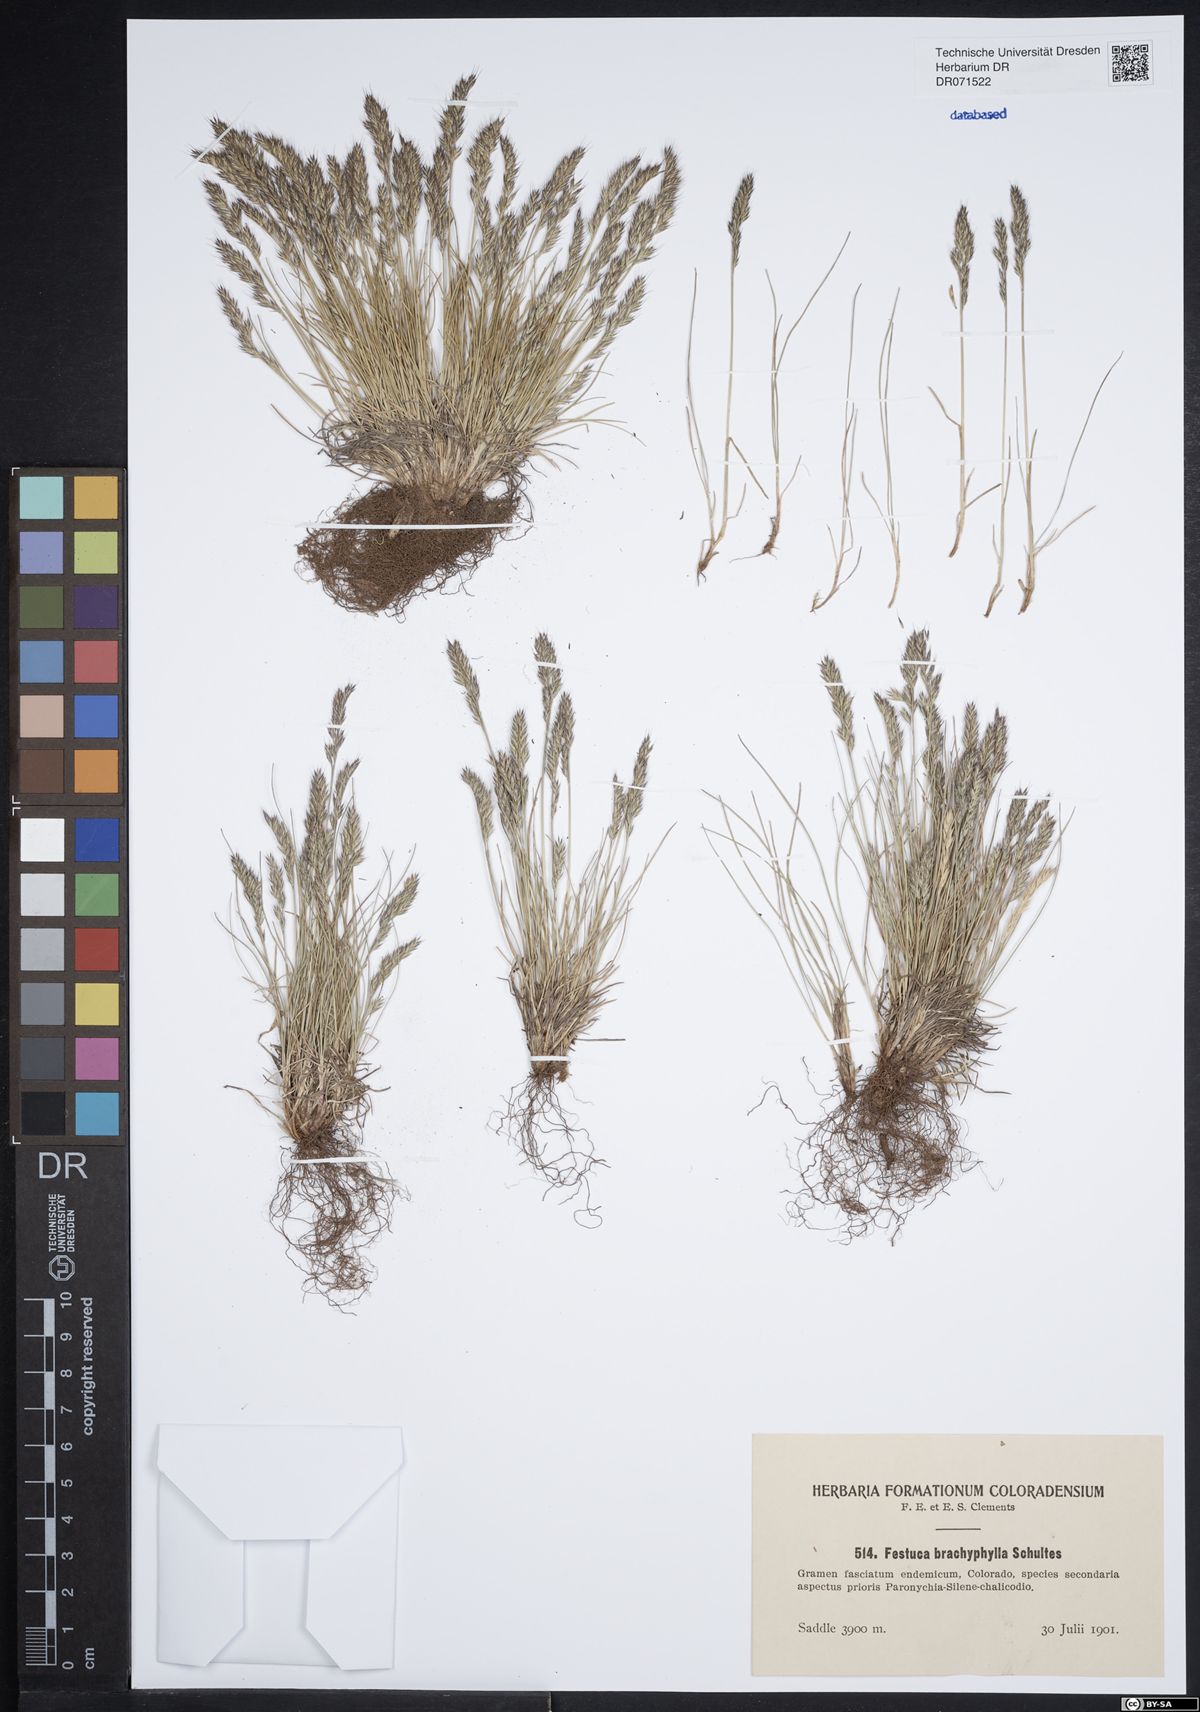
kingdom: Plantae
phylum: Tracheophyta
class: Liliopsida
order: Poales
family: Poaceae
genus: Festuca
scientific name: Festuca brachyphylla
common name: Alpine fescue
